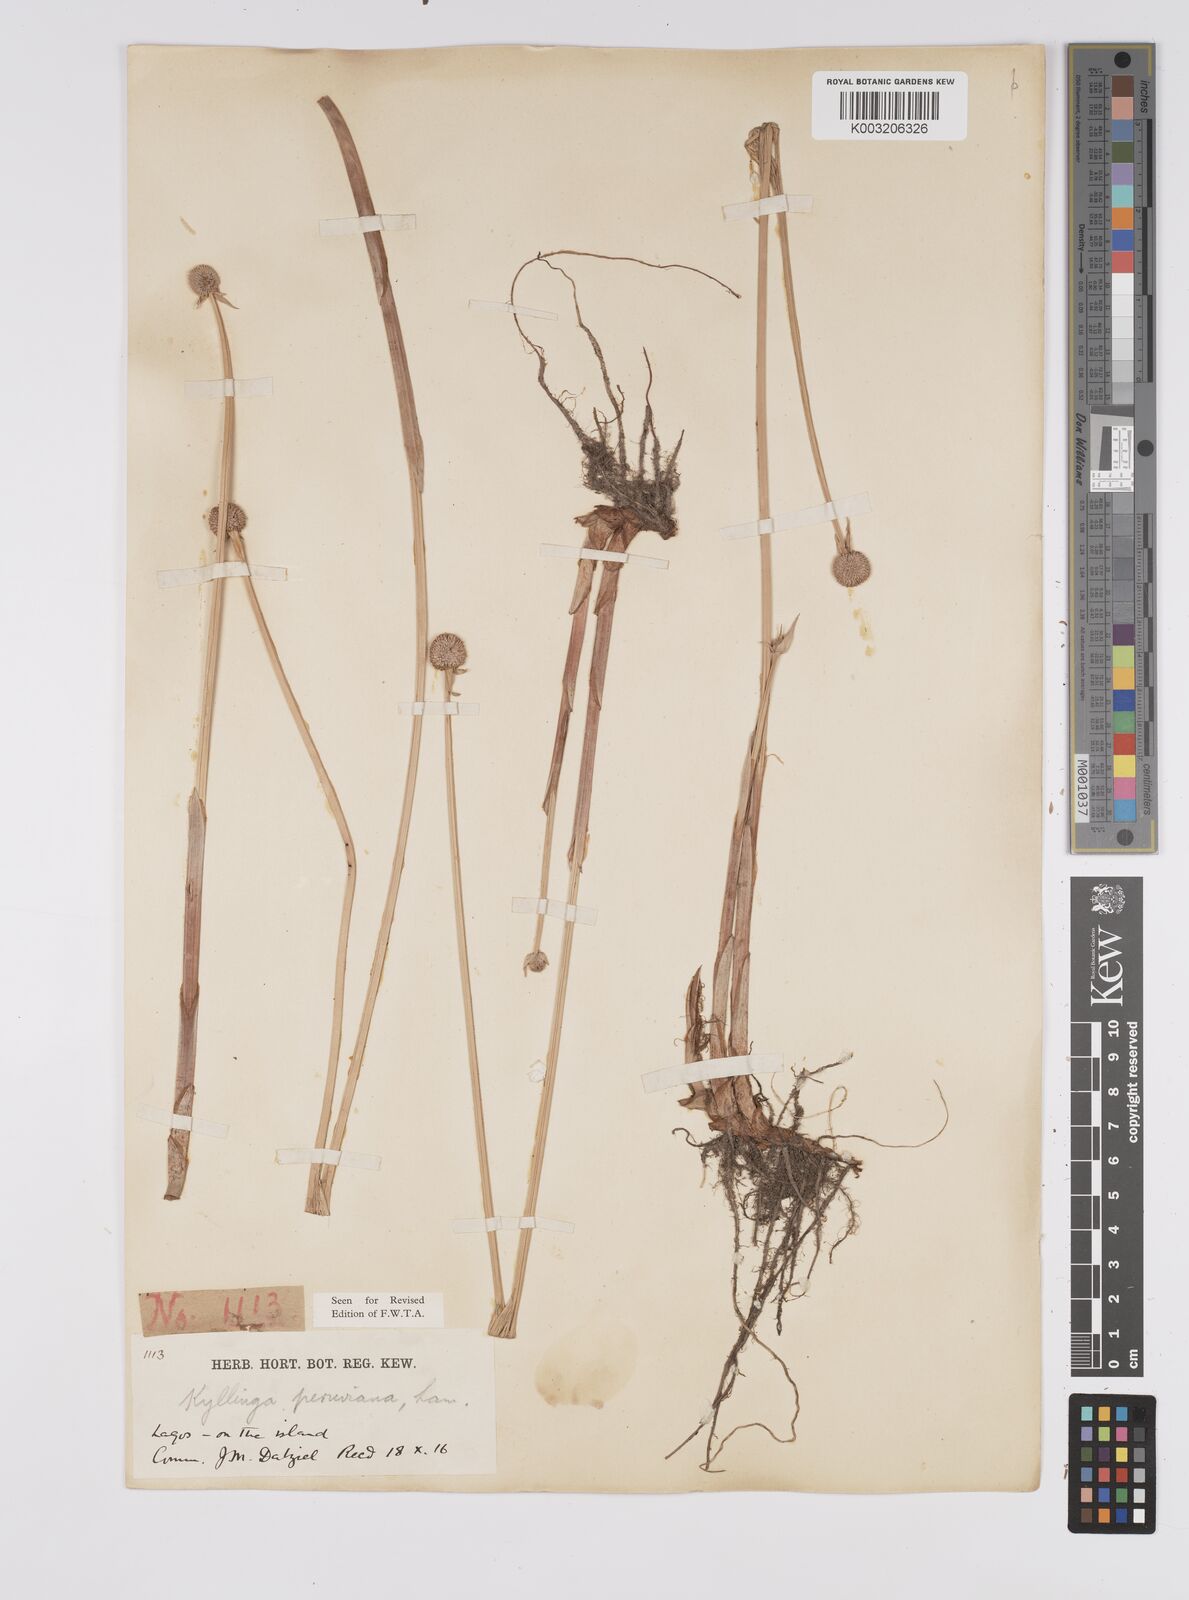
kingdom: Plantae
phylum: Tracheophyta
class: Liliopsida
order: Poales
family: Cyperaceae
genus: Cyperus
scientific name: Cyperus
